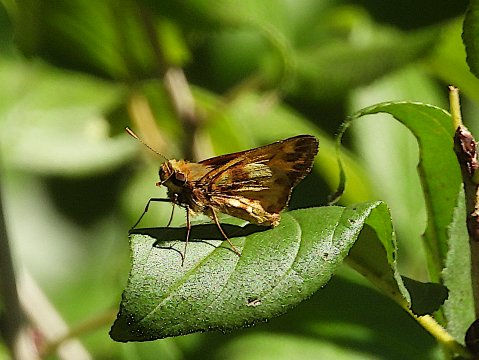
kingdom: Animalia
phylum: Arthropoda
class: Insecta
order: Lepidoptera
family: Hesperiidae
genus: Lon
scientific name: Lon zabulon
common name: Zabulon Skipper
